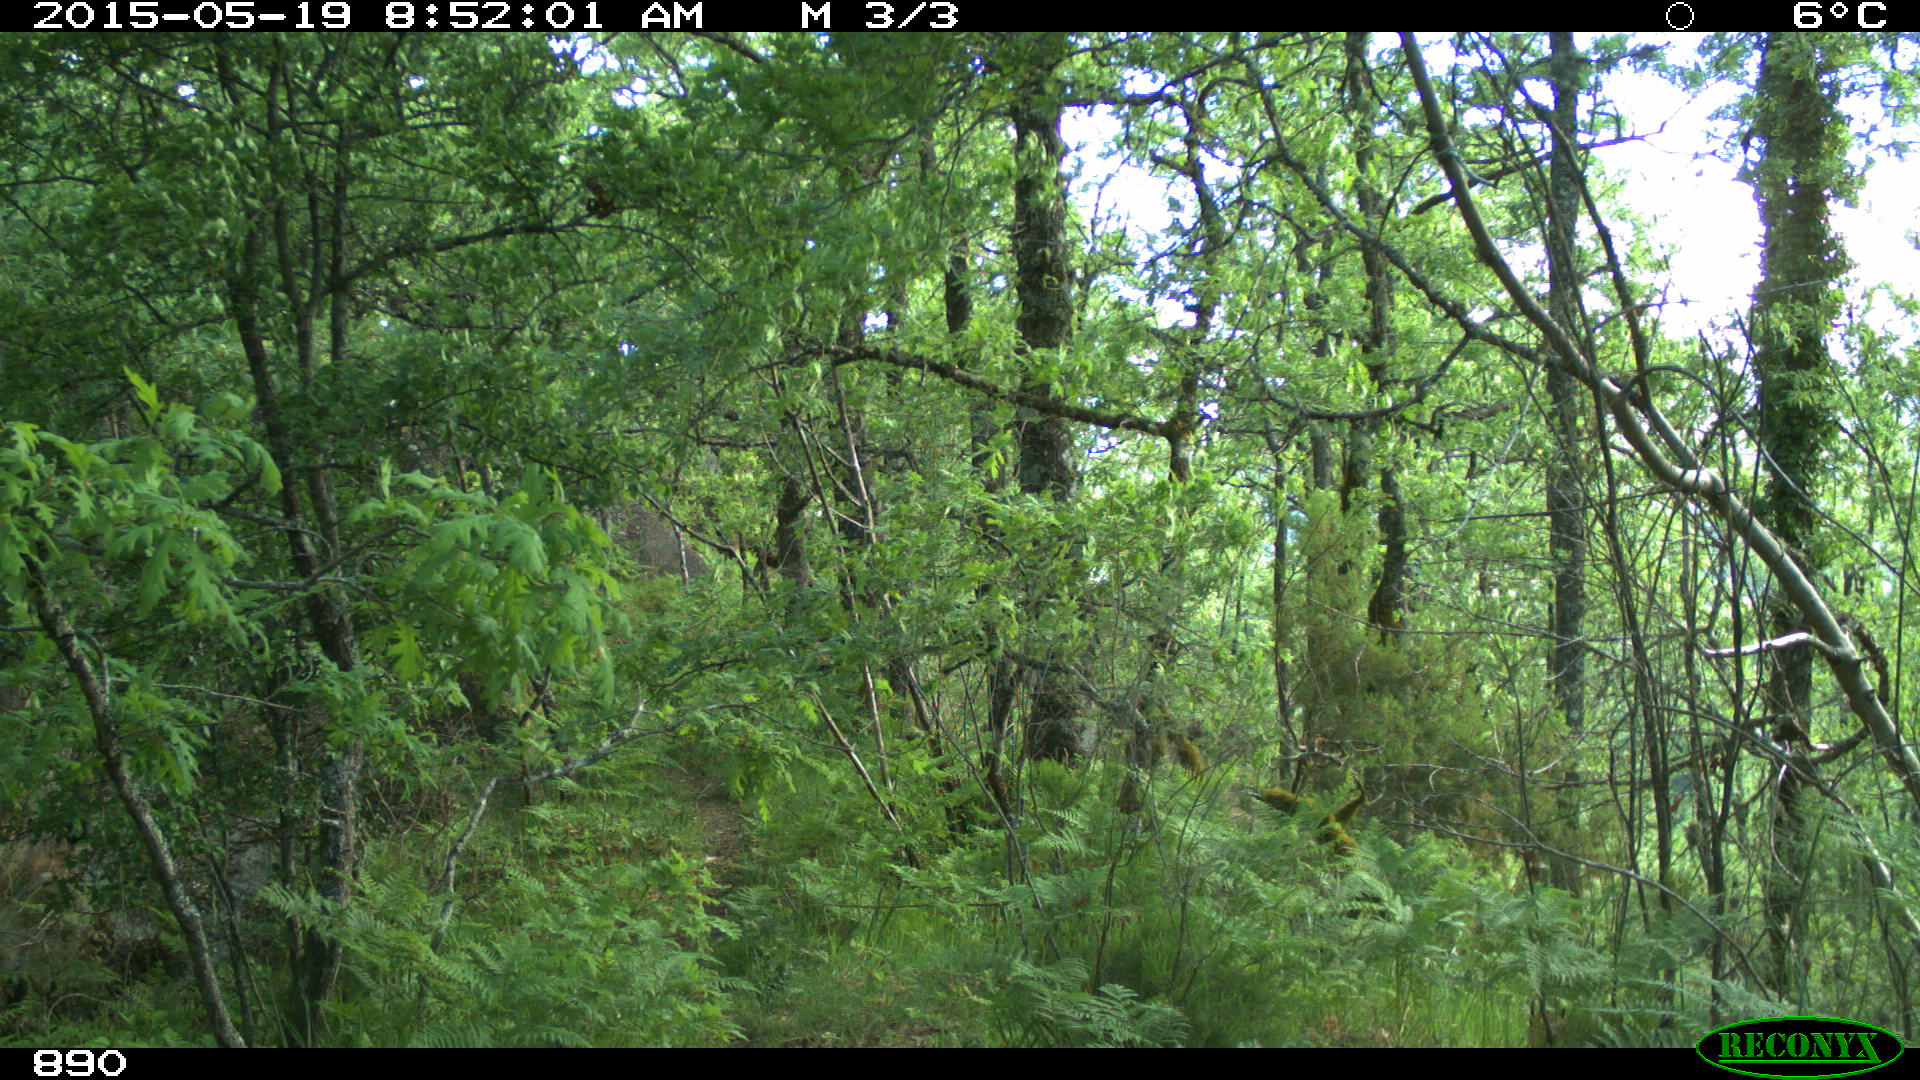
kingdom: Animalia
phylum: Chordata
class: Mammalia
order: Artiodactyla
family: Cervidae
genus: Capreolus
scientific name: Capreolus capreolus
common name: Western roe deer
